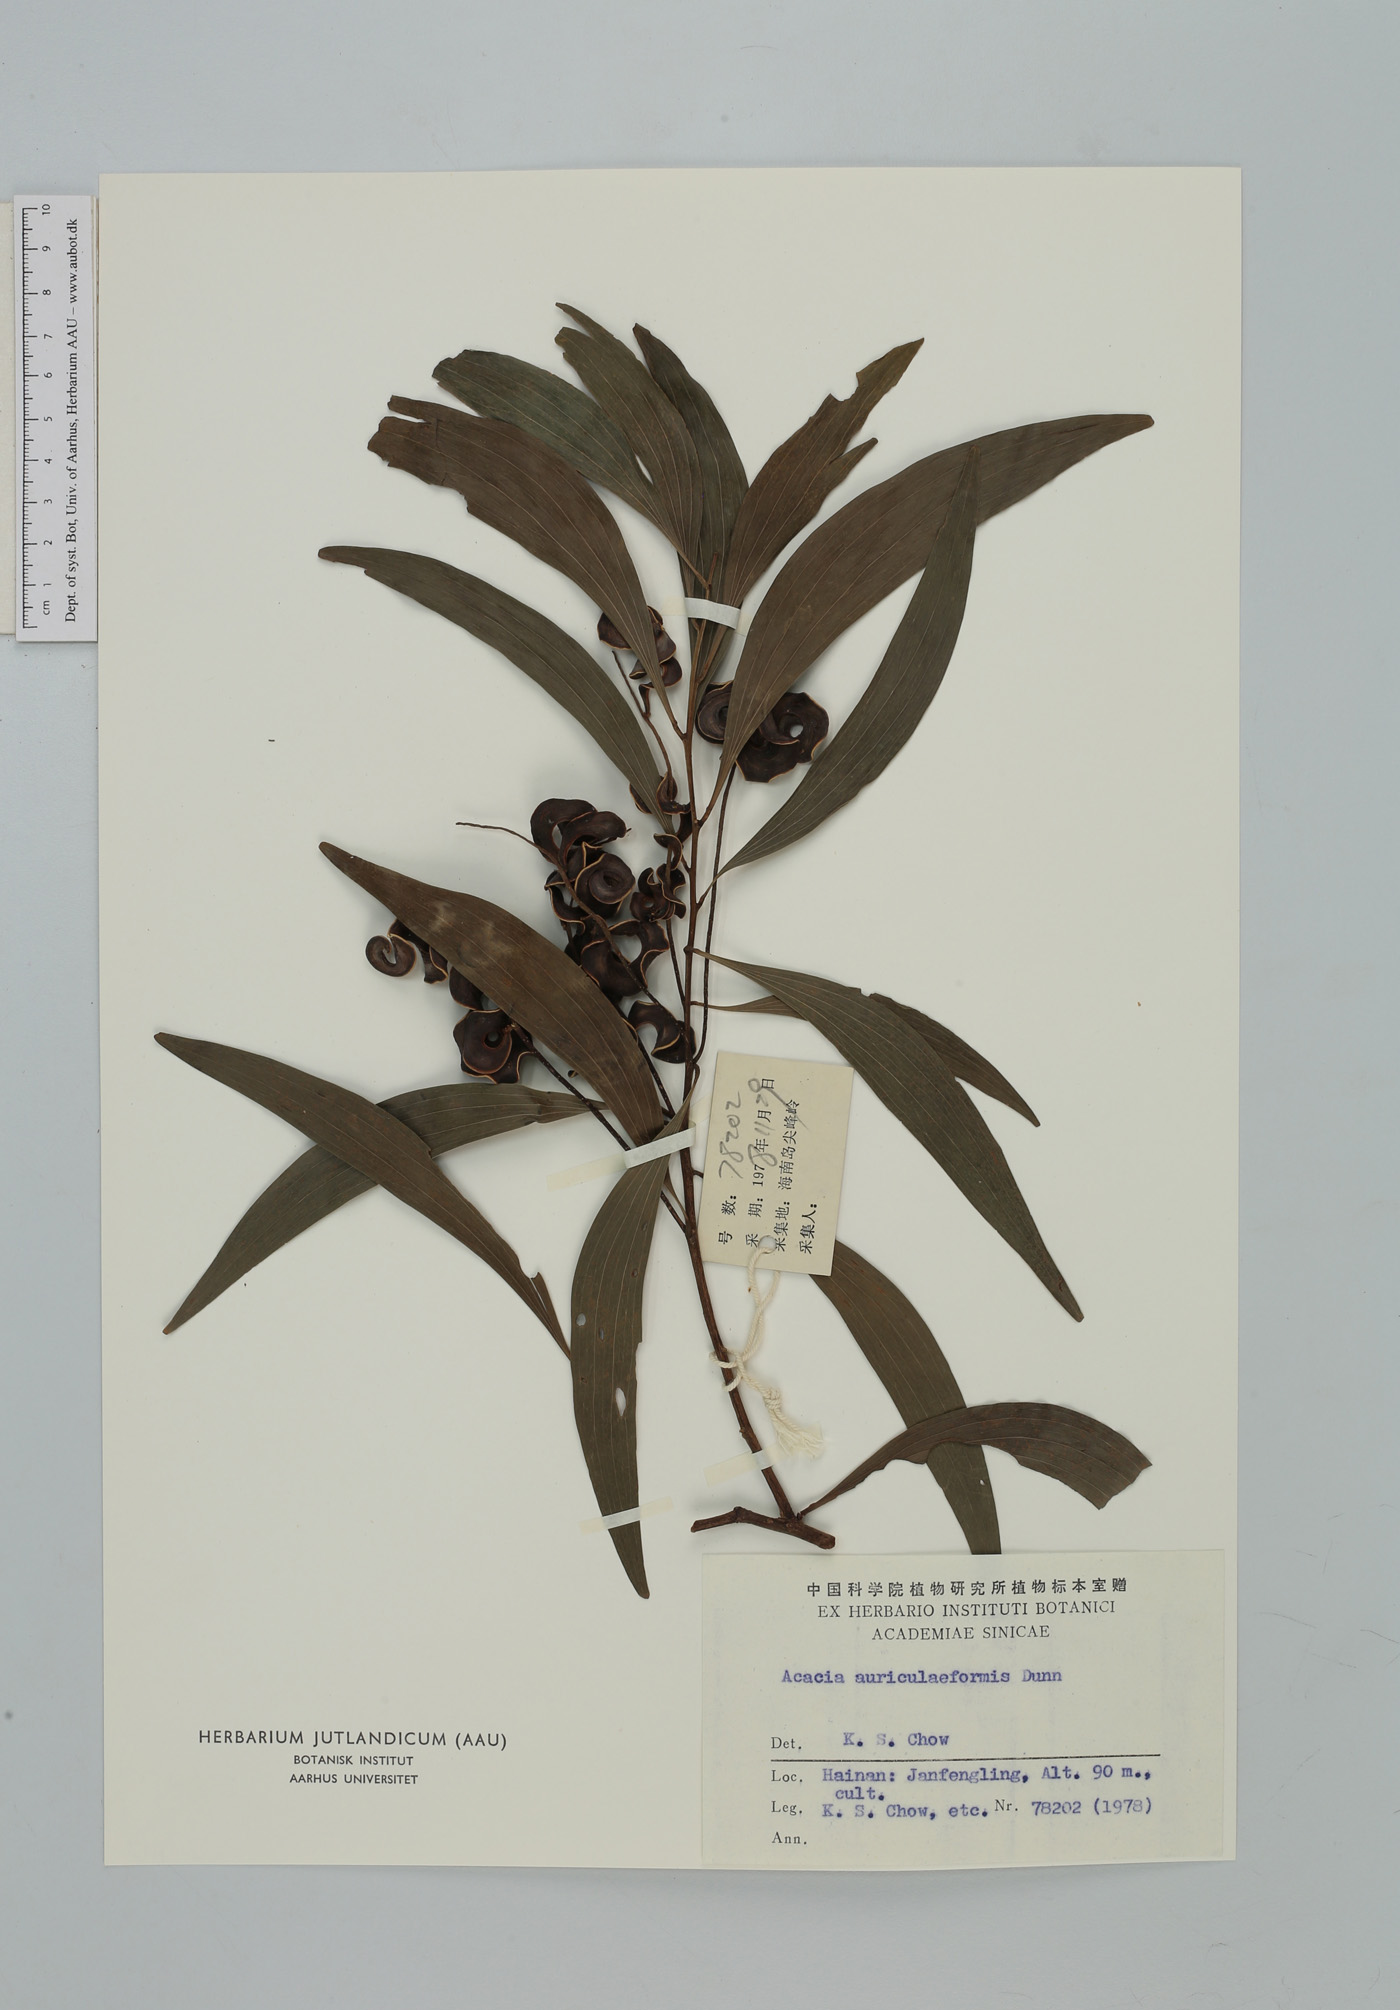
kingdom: Plantae
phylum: Tracheophyta
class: Magnoliopsida
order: Fabales
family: Fabaceae
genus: Acacia
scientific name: Acacia auriculiformis
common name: Earleaf acacia
